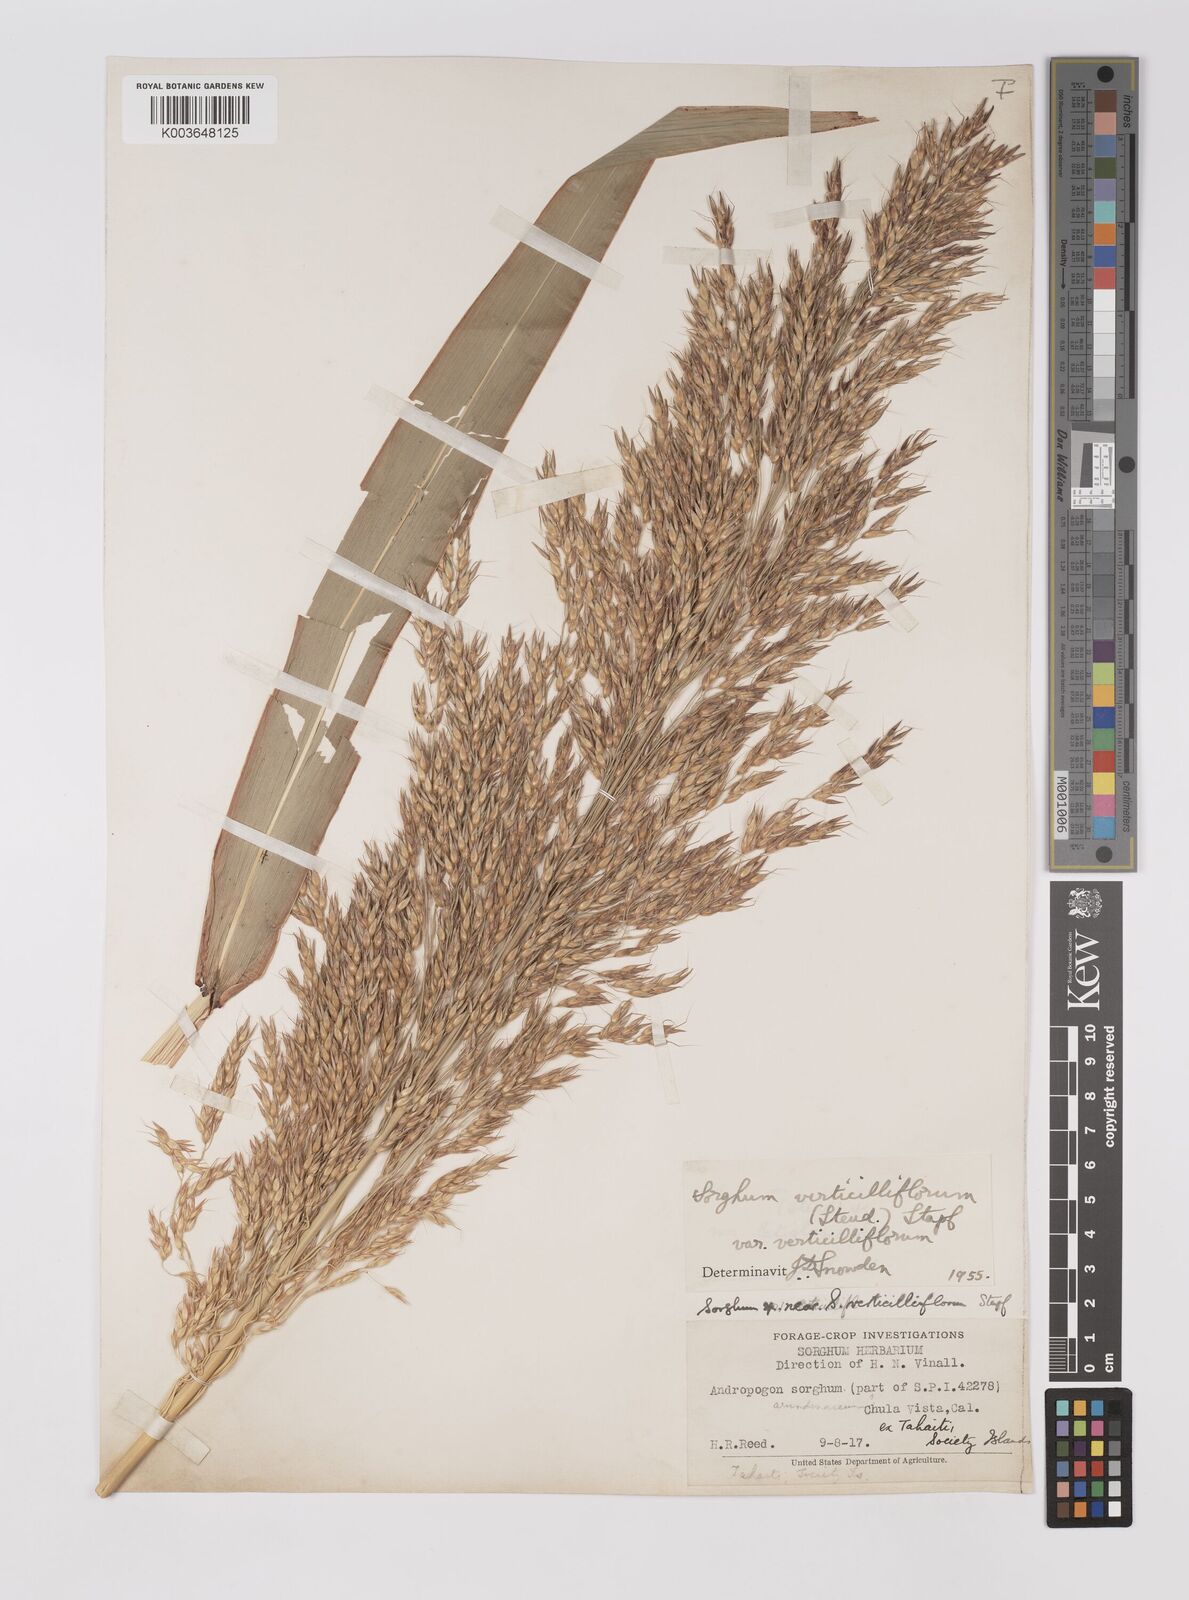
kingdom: Plantae
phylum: Tracheophyta
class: Liliopsida
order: Poales
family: Poaceae
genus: Sorghum
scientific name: Sorghum arundinaceum
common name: Sorghum
